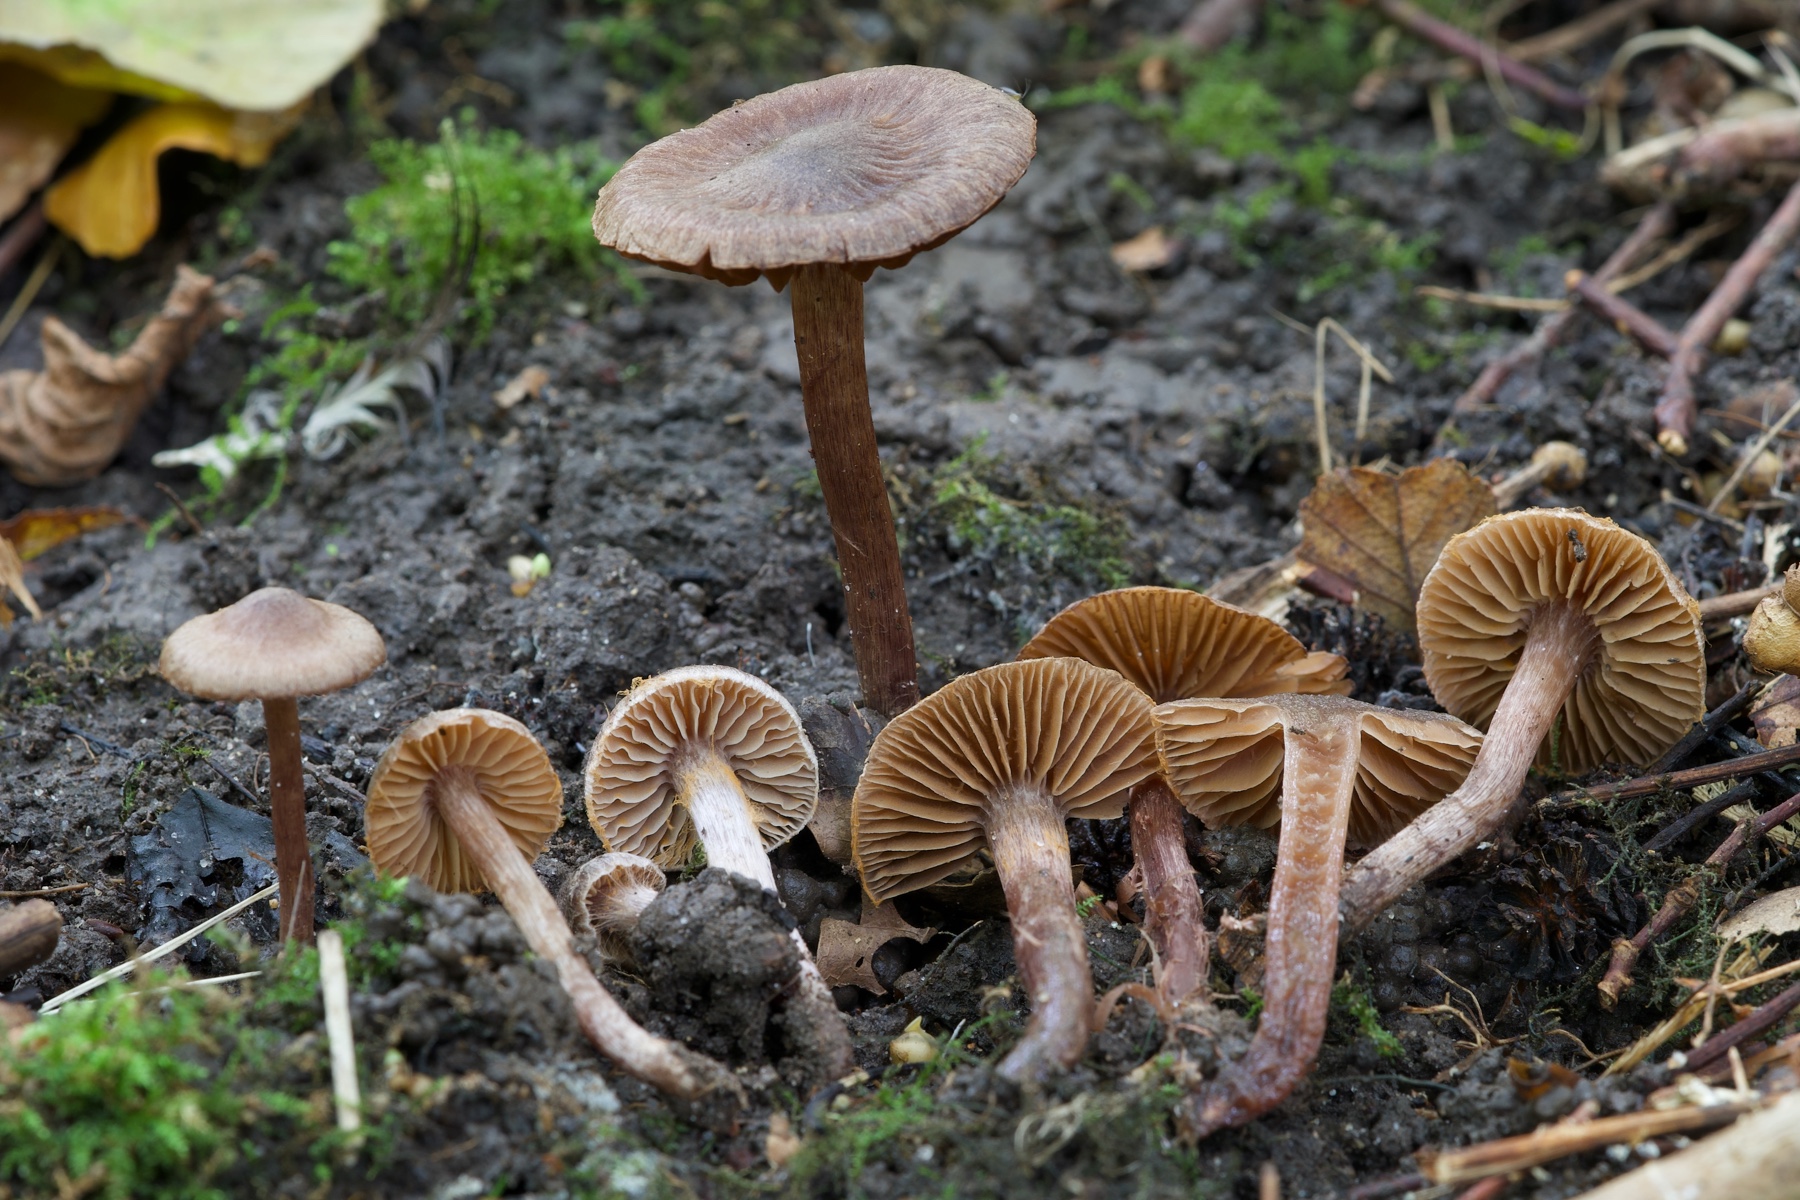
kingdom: Fungi
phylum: Basidiomycota
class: Agaricomycetes
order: Agaricales
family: Cortinariaceae
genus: Cortinarius
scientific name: Cortinarius
